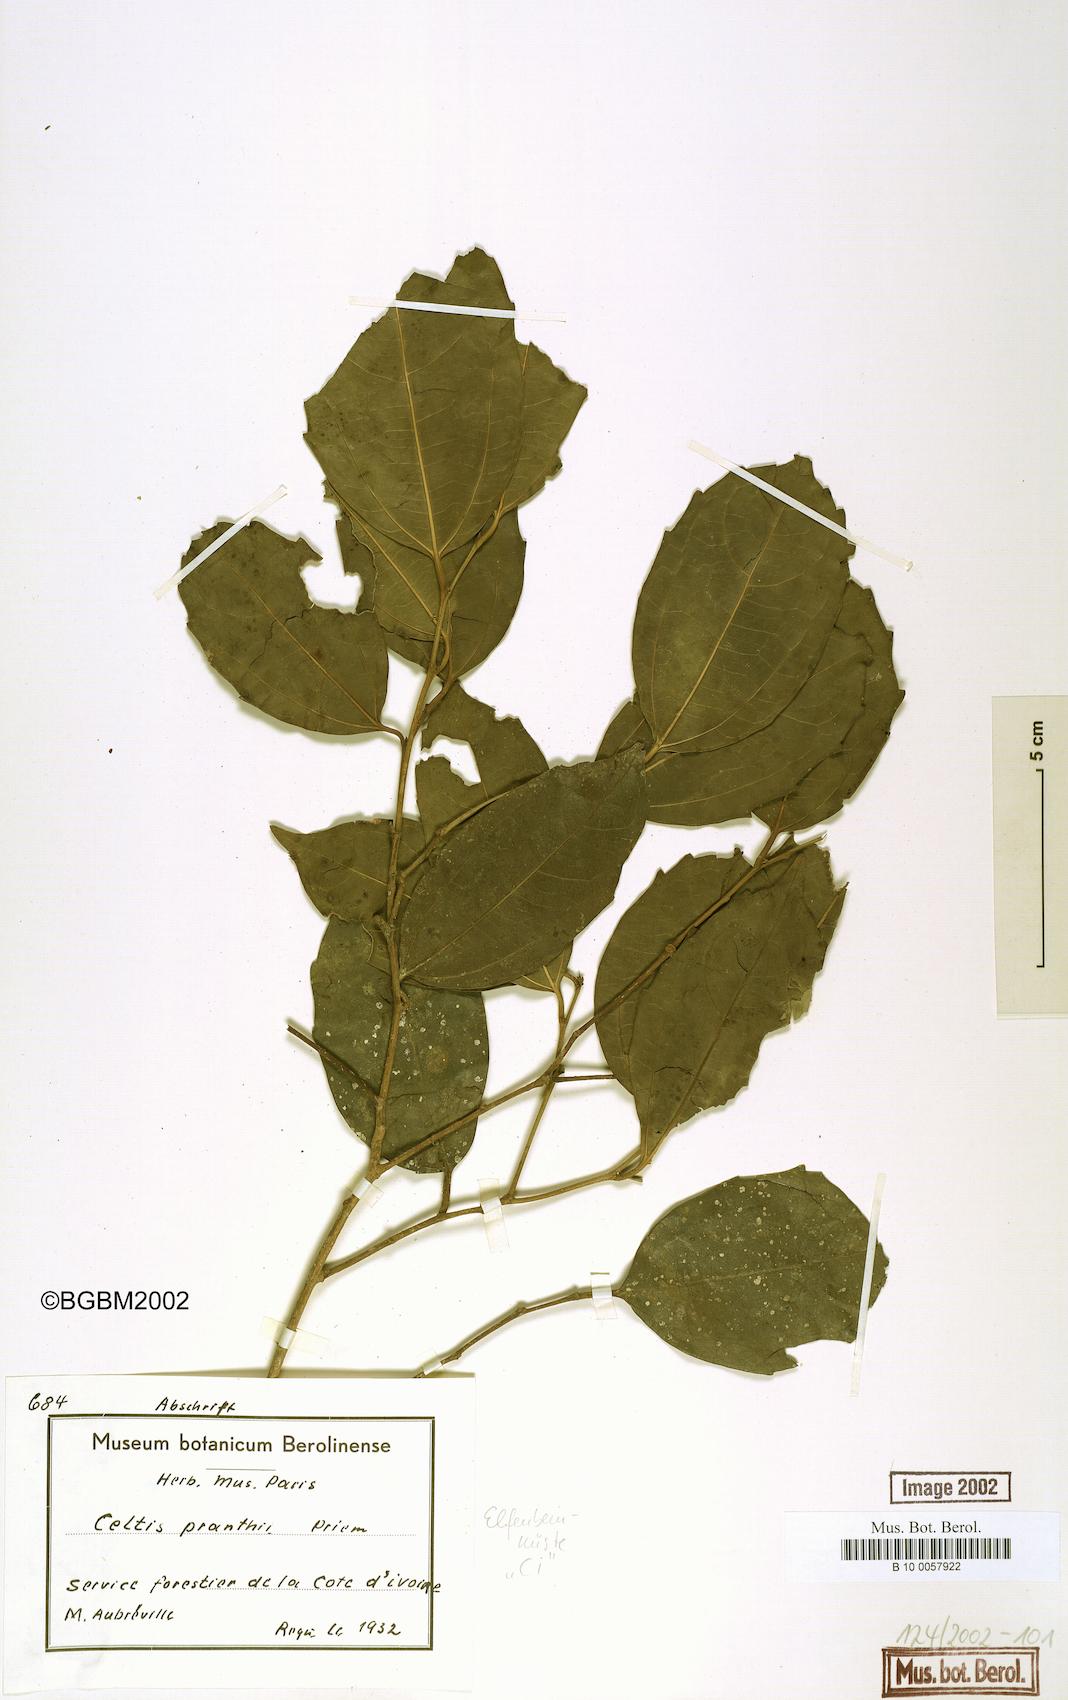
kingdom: Plantae
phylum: Tracheophyta
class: Magnoliopsida
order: Rosales
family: Cannabaceae
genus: Celtis
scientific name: Celtis philippensis
